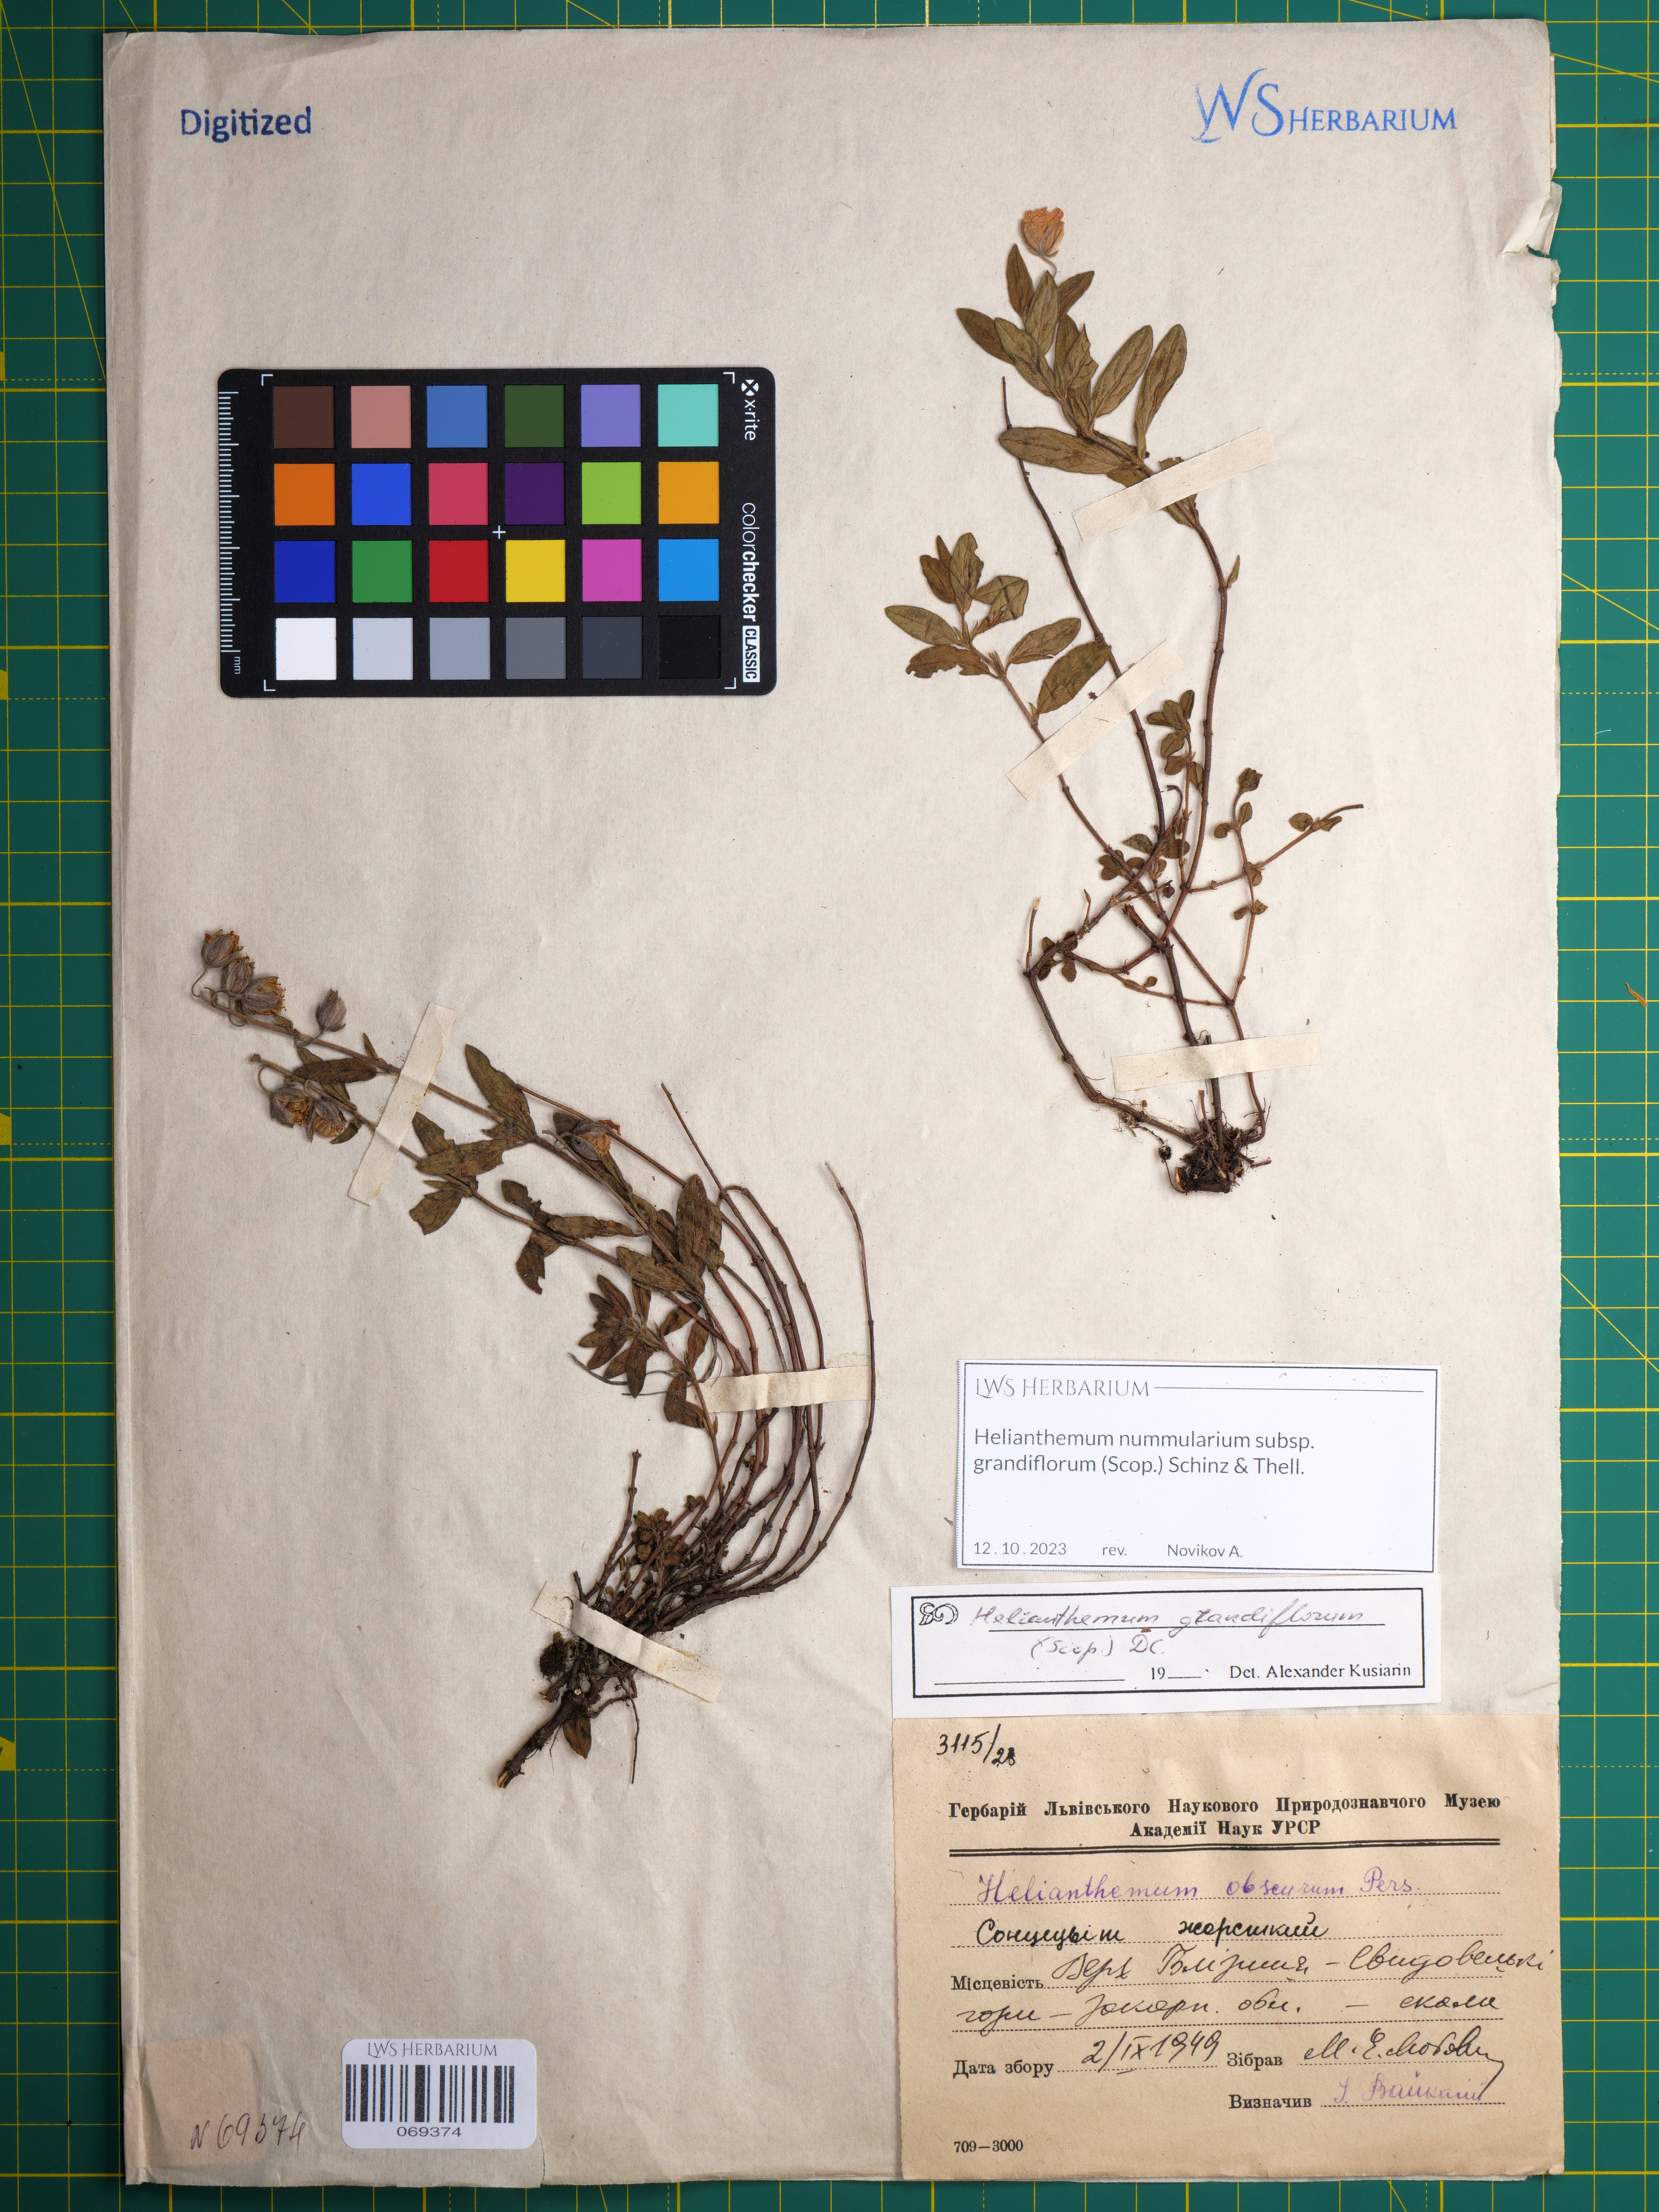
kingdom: Plantae
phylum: Tracheophyta
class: Magnoliopsida
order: Malvales
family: Cistaceae
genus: Helianthemum
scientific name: Helianthemum nummularium
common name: Common rock-rose
